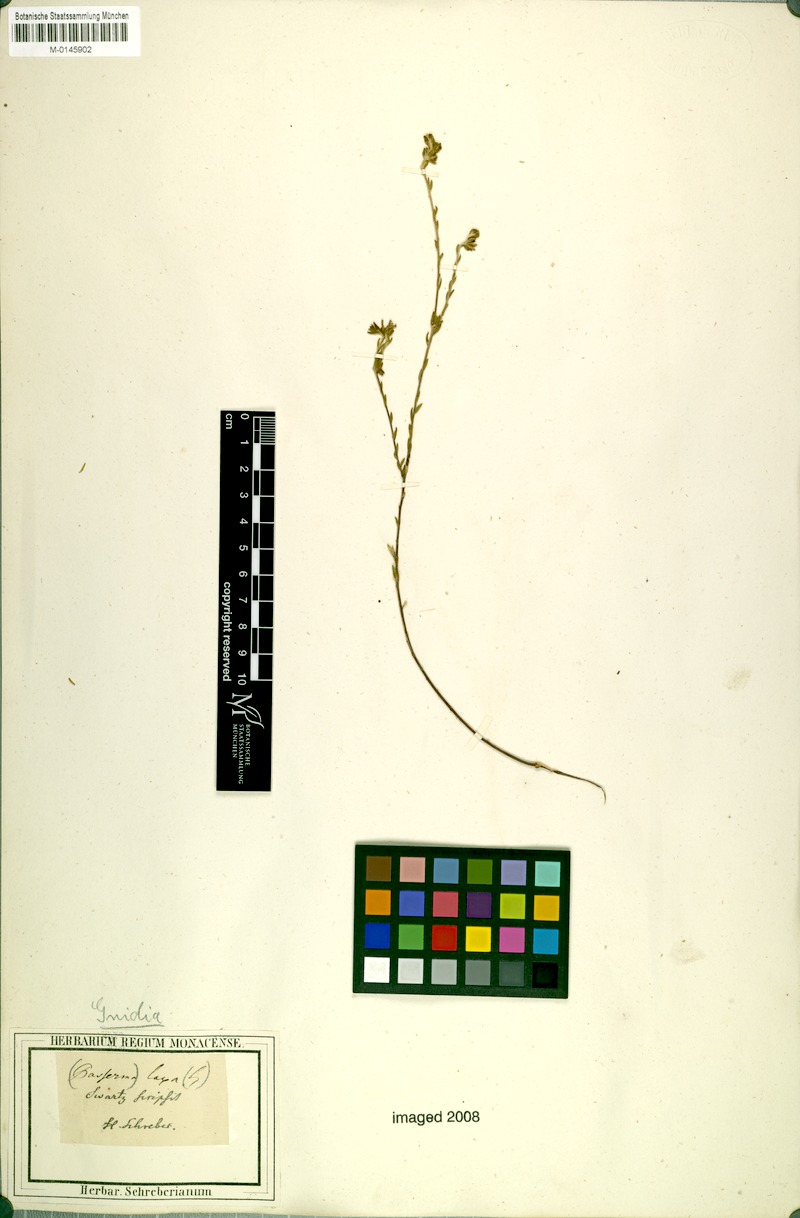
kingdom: Plantae
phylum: Tracheophyta
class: Magnoliopsida
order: Malvales
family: Thymelaeaceae
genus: Gnidia
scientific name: Gnidia laxa
